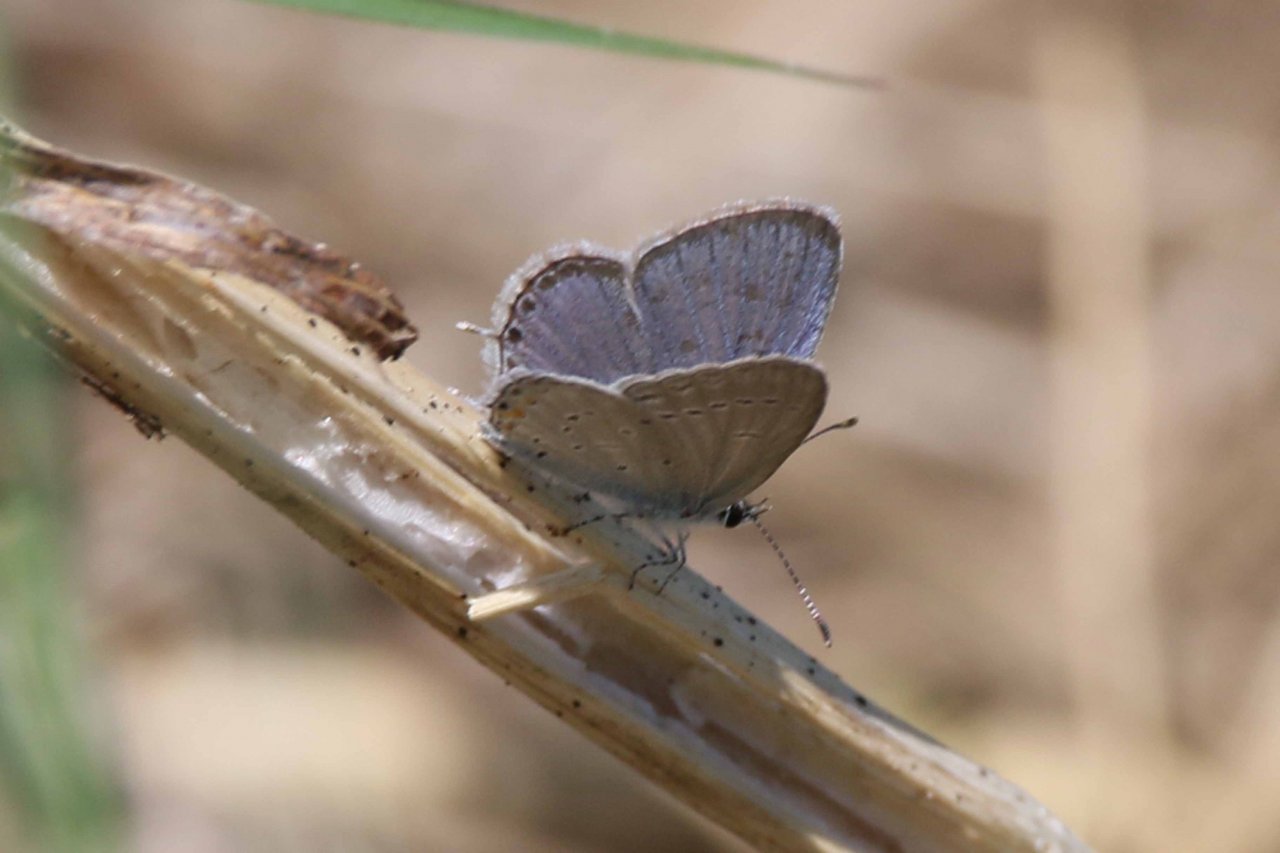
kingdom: Animalia
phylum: Arthropoda
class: Insecta
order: Lepidoptera
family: Lycaenidae
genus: Elkalyce
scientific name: Elkalyce comyntas
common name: Eastern Tailed-Blue
